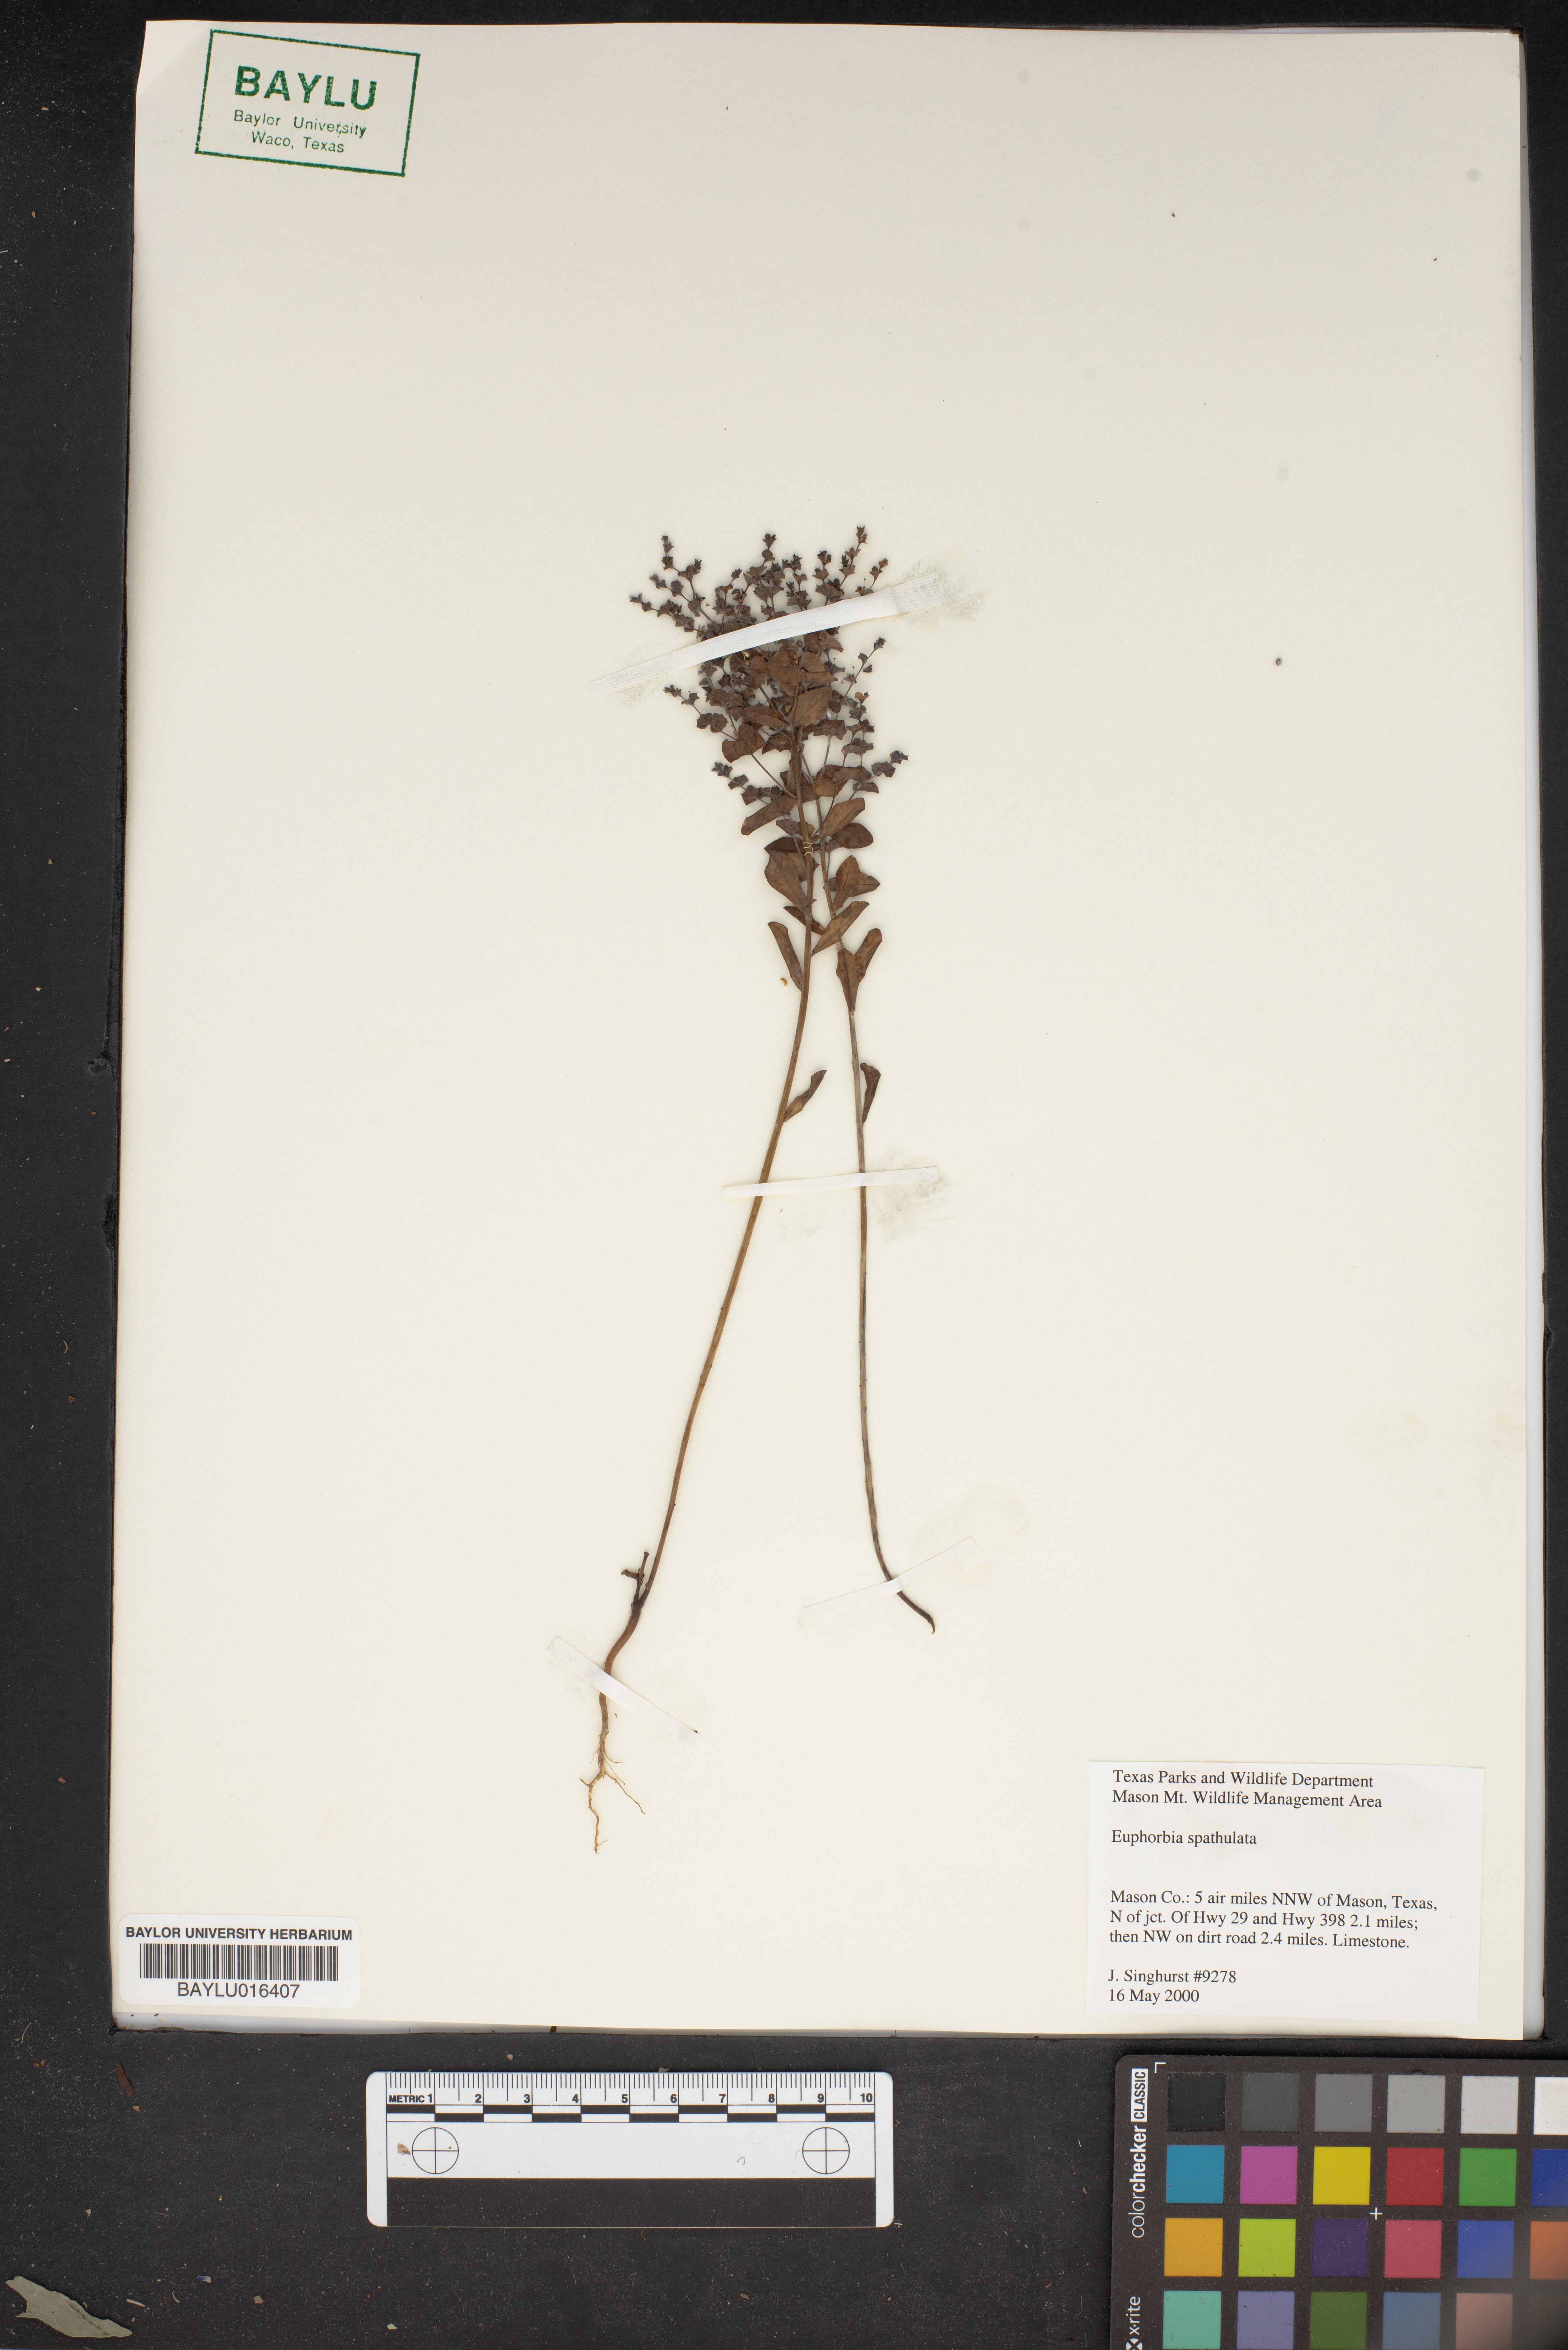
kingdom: Plantae
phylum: Tracheophyta
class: Magnoliopsida
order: Malpighiales
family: Euphorbiaceae
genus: Euphorbia
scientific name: Euphorbia spathulata
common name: Blunt spurge
